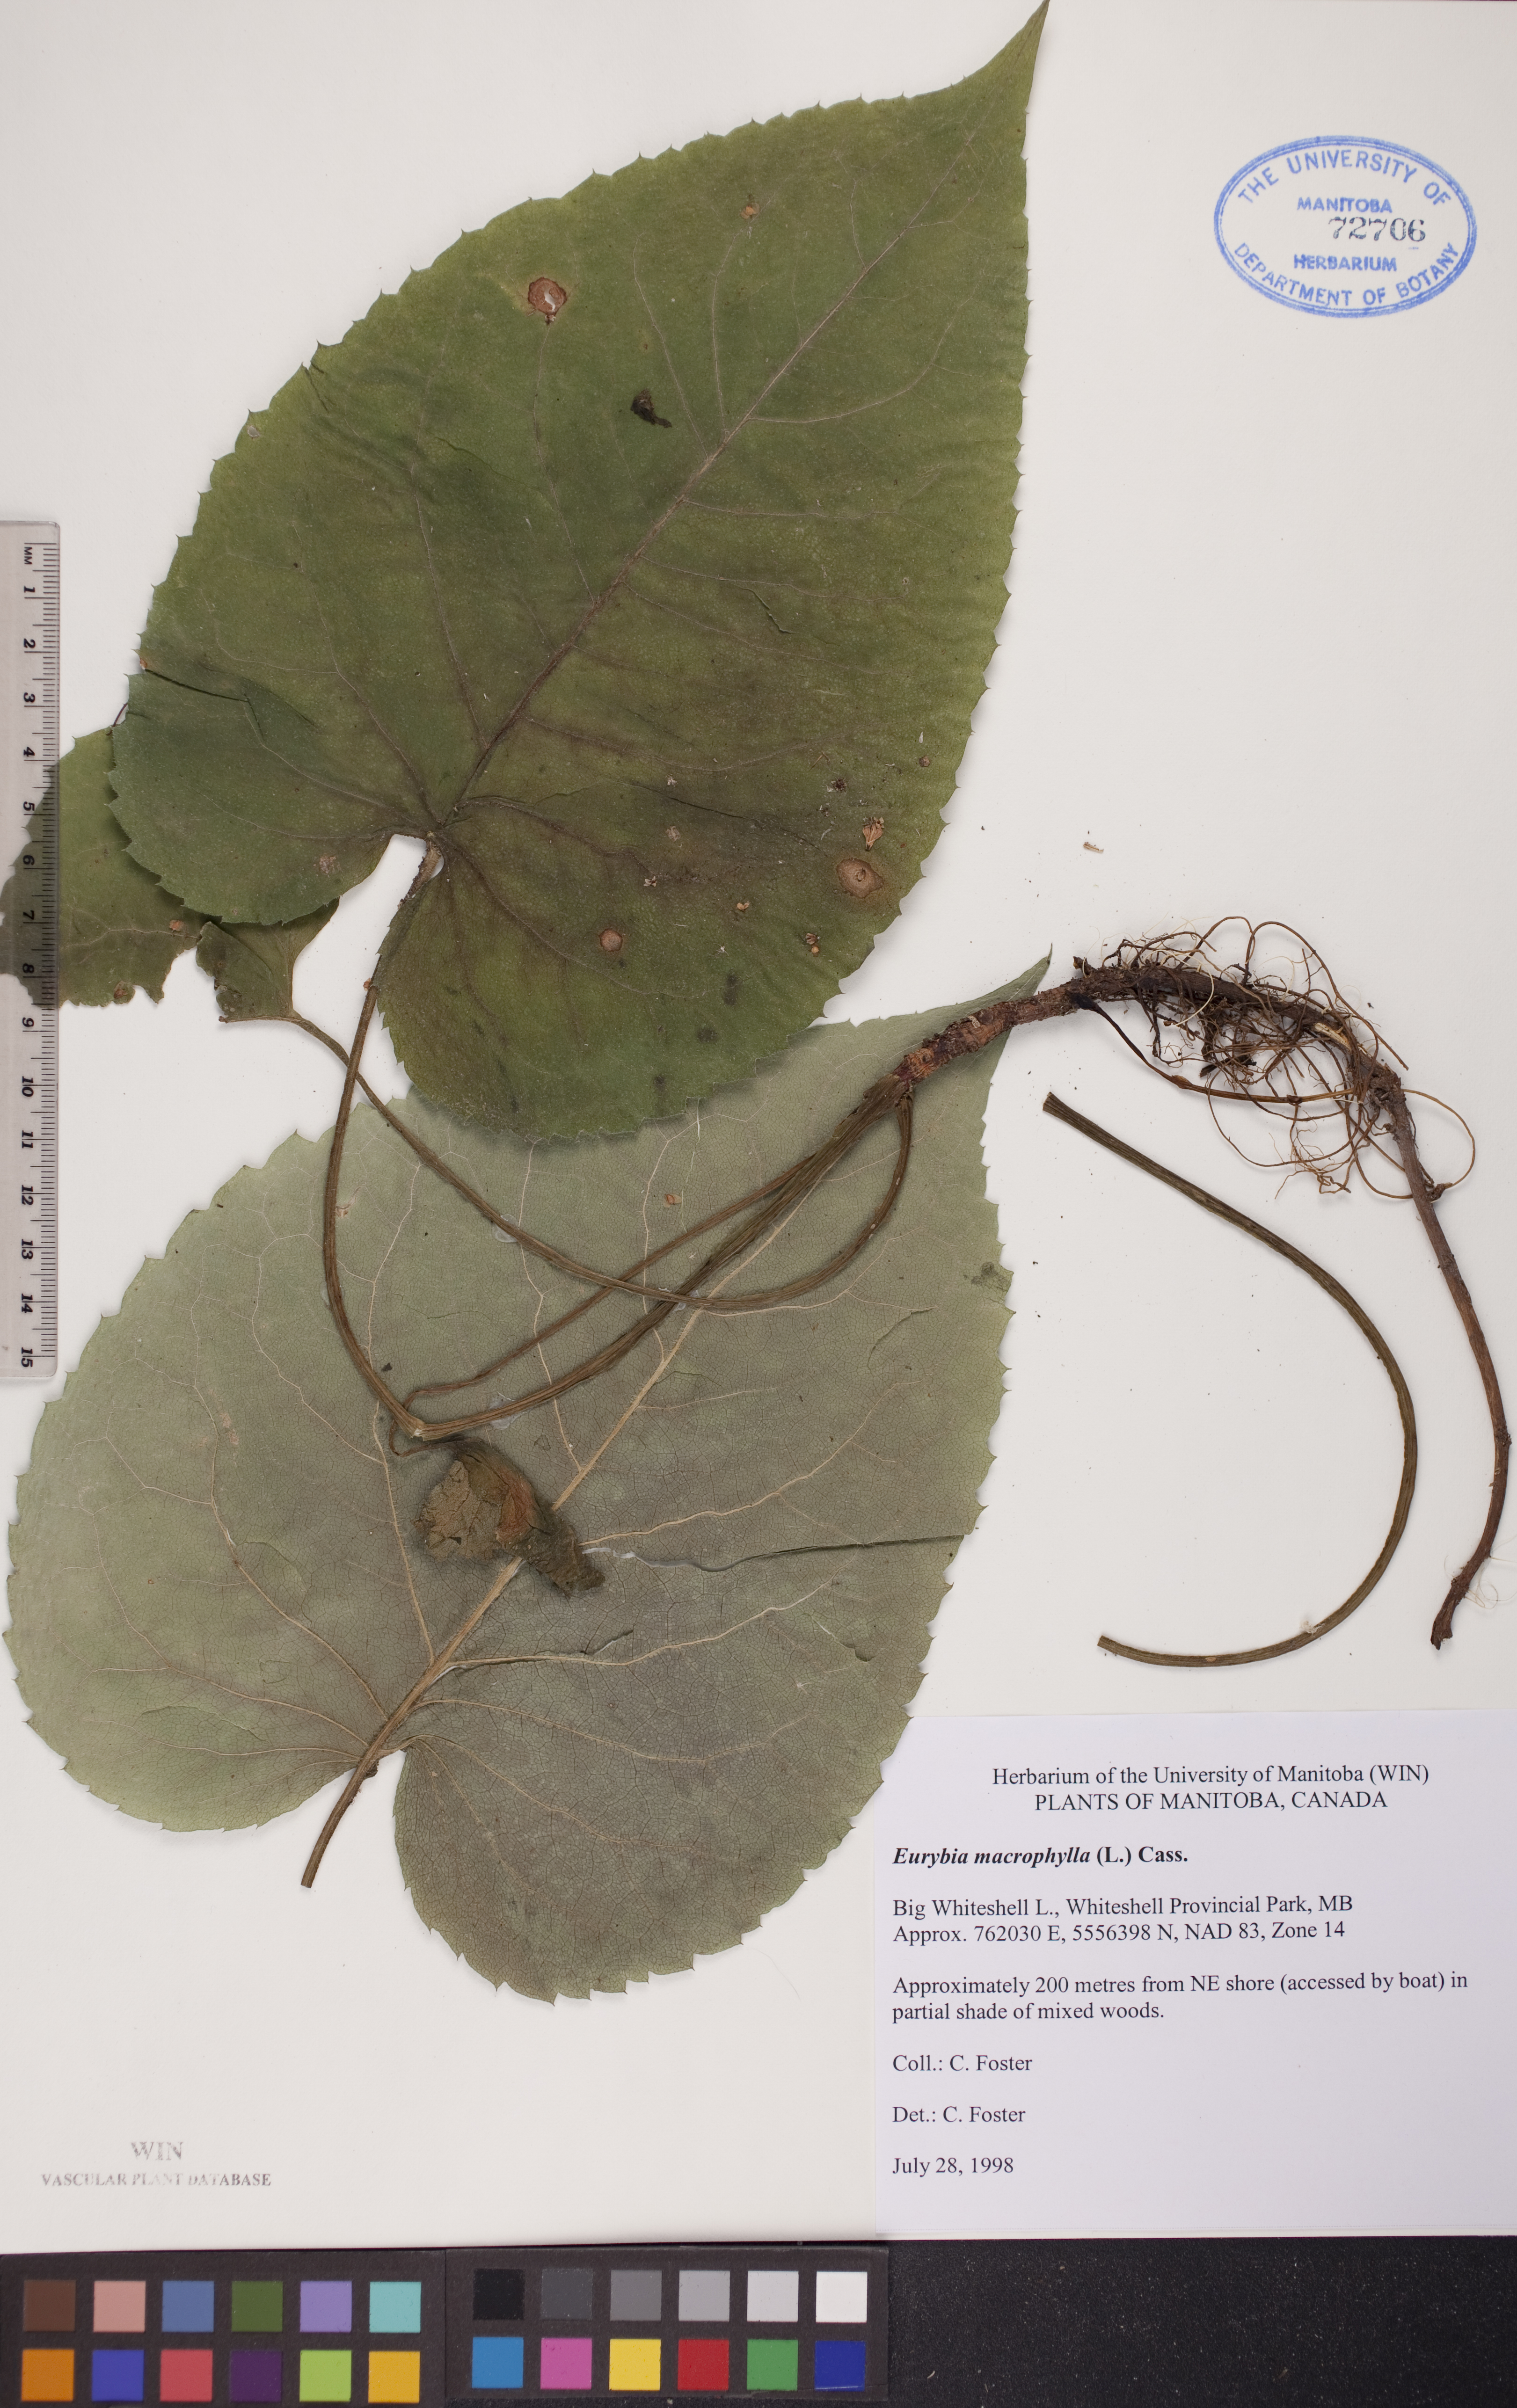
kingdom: Plantae
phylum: Tracheophyta
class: Magnoliopsida
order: Asterales
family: Asteraceae
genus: Eurybia
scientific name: Eurybia macrophylla
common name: Big-leaved aster
